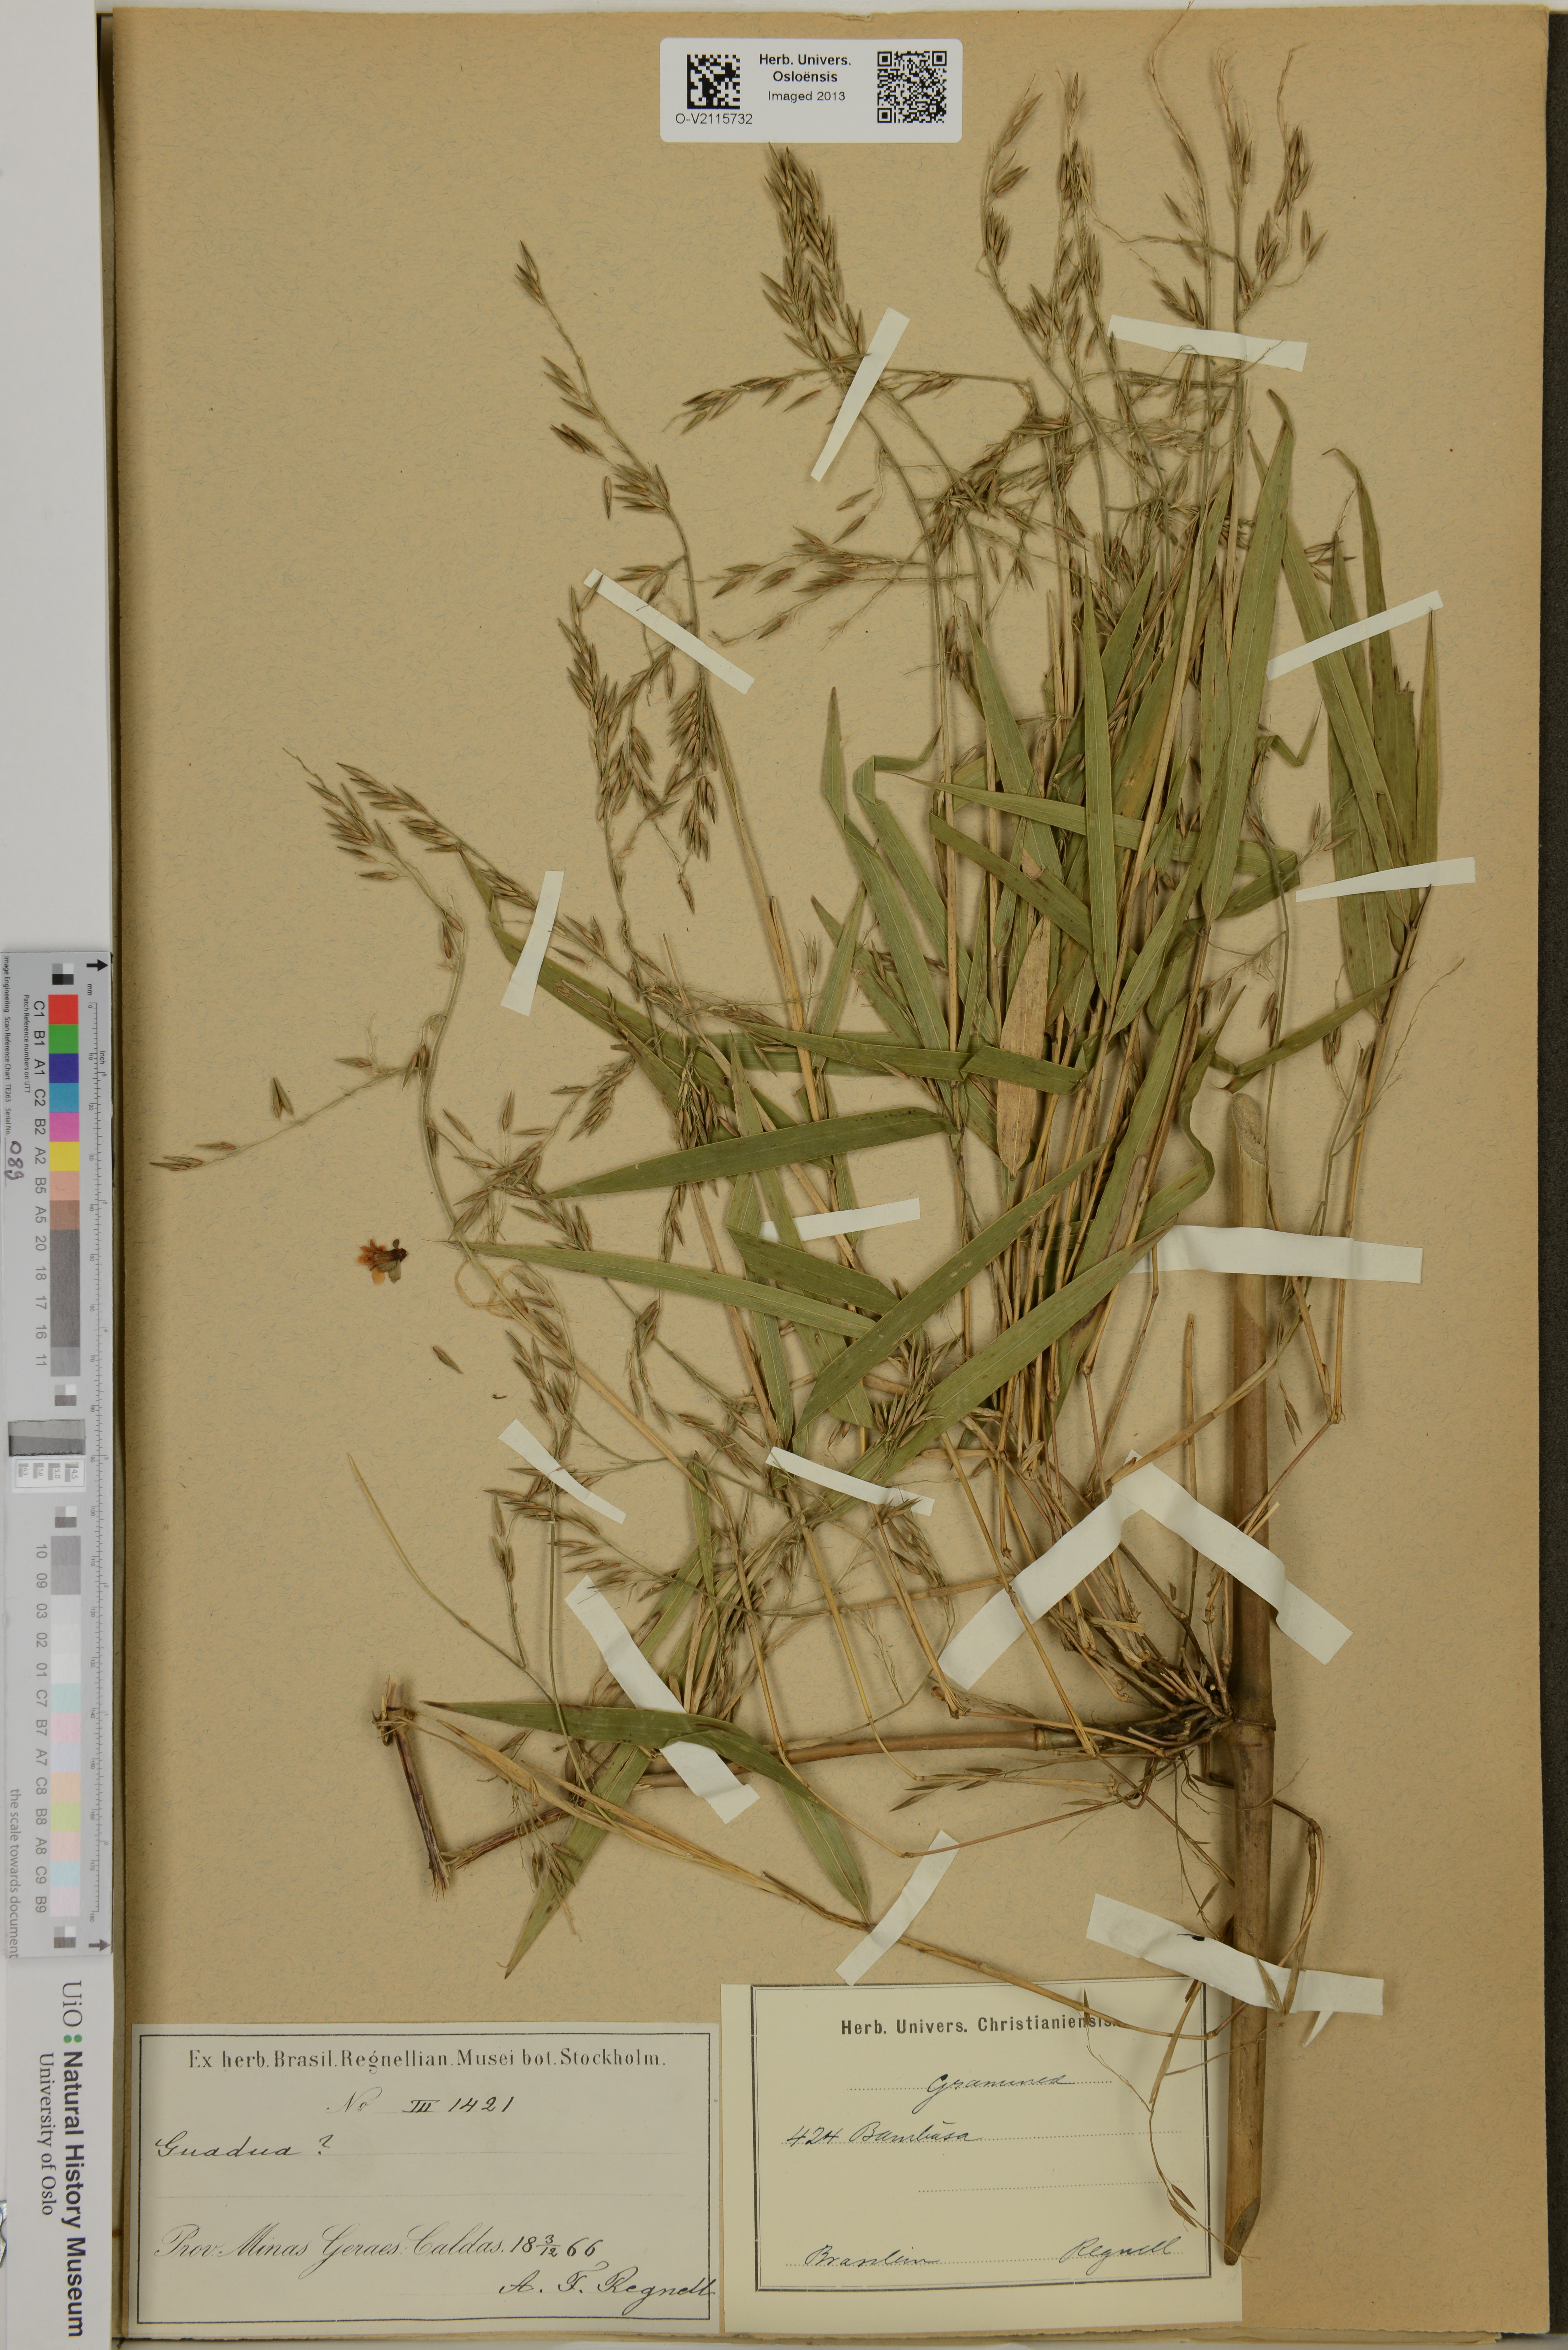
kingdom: Plantae
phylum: Tracheophyta
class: Liliopsida
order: Poales
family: Poaceae
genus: Bambusa
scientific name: Bambusa
